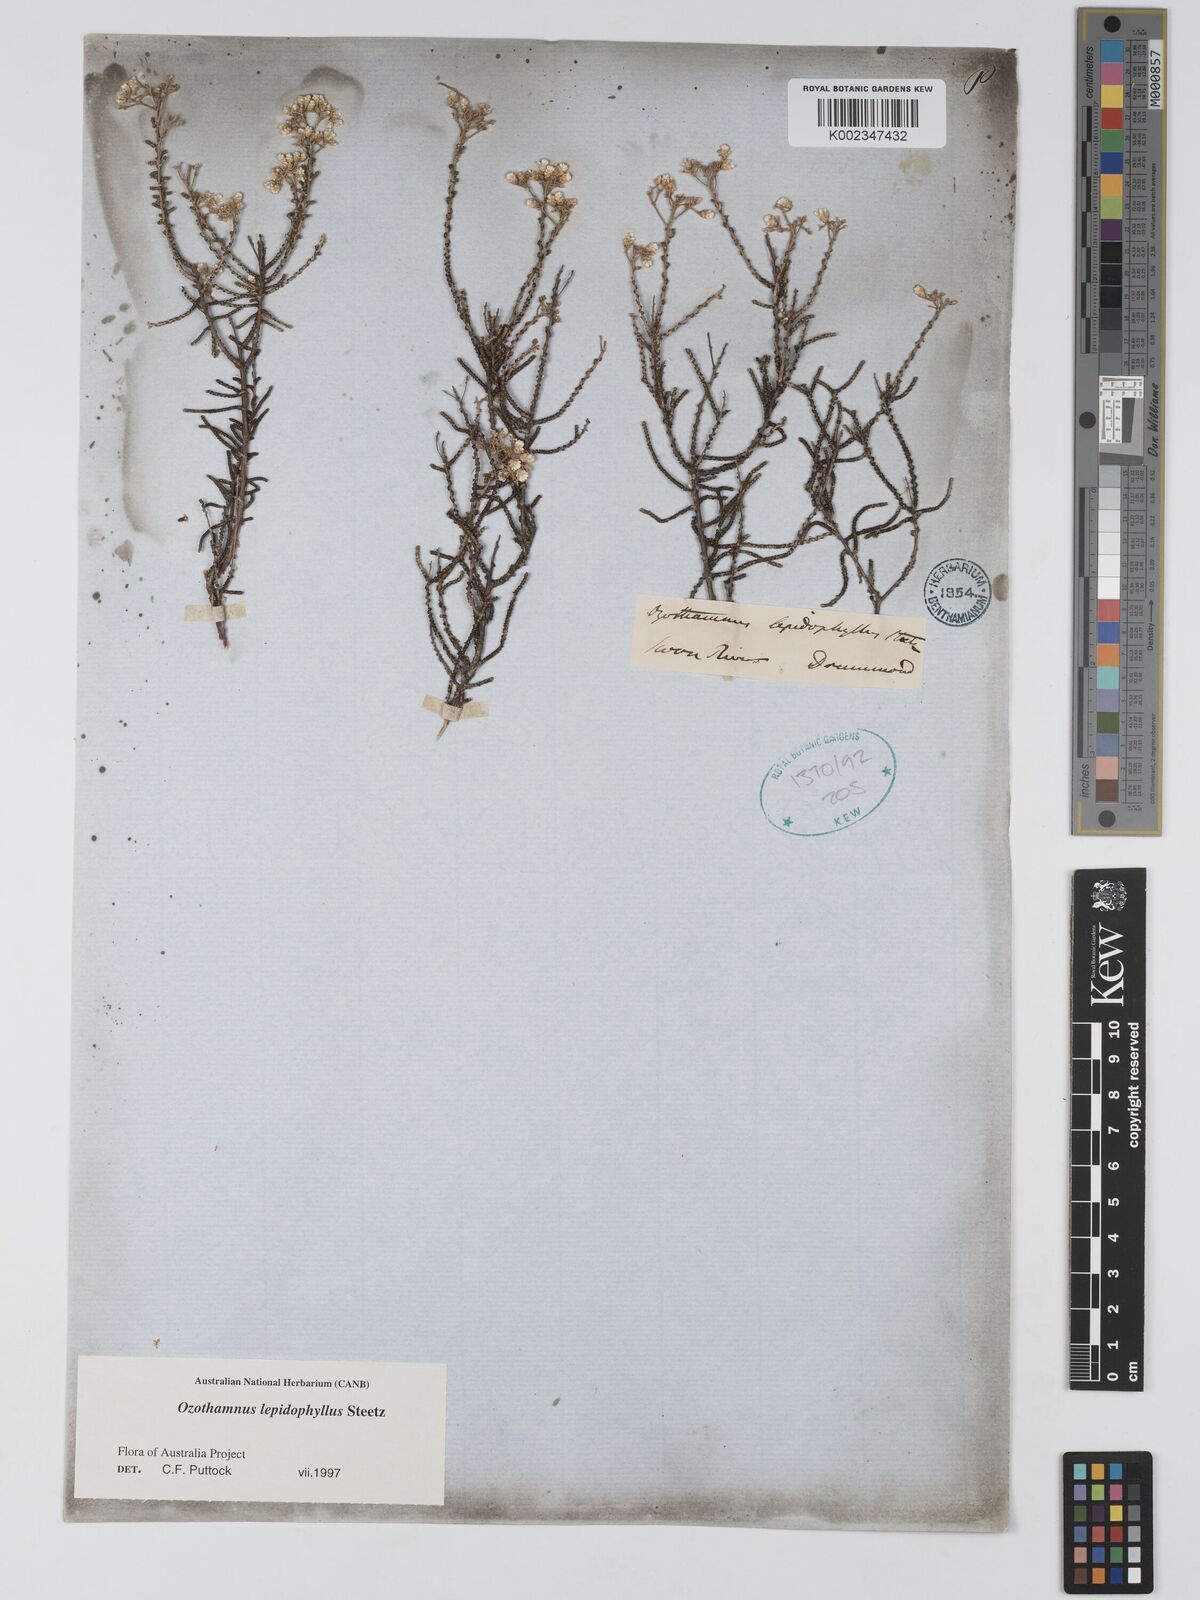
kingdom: Plantae
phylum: Tracheophyta
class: Magnoliopsida
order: Asterales
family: Asteraceae
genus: Ozothamnus
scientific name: Ozothamnus lepidophyllus
